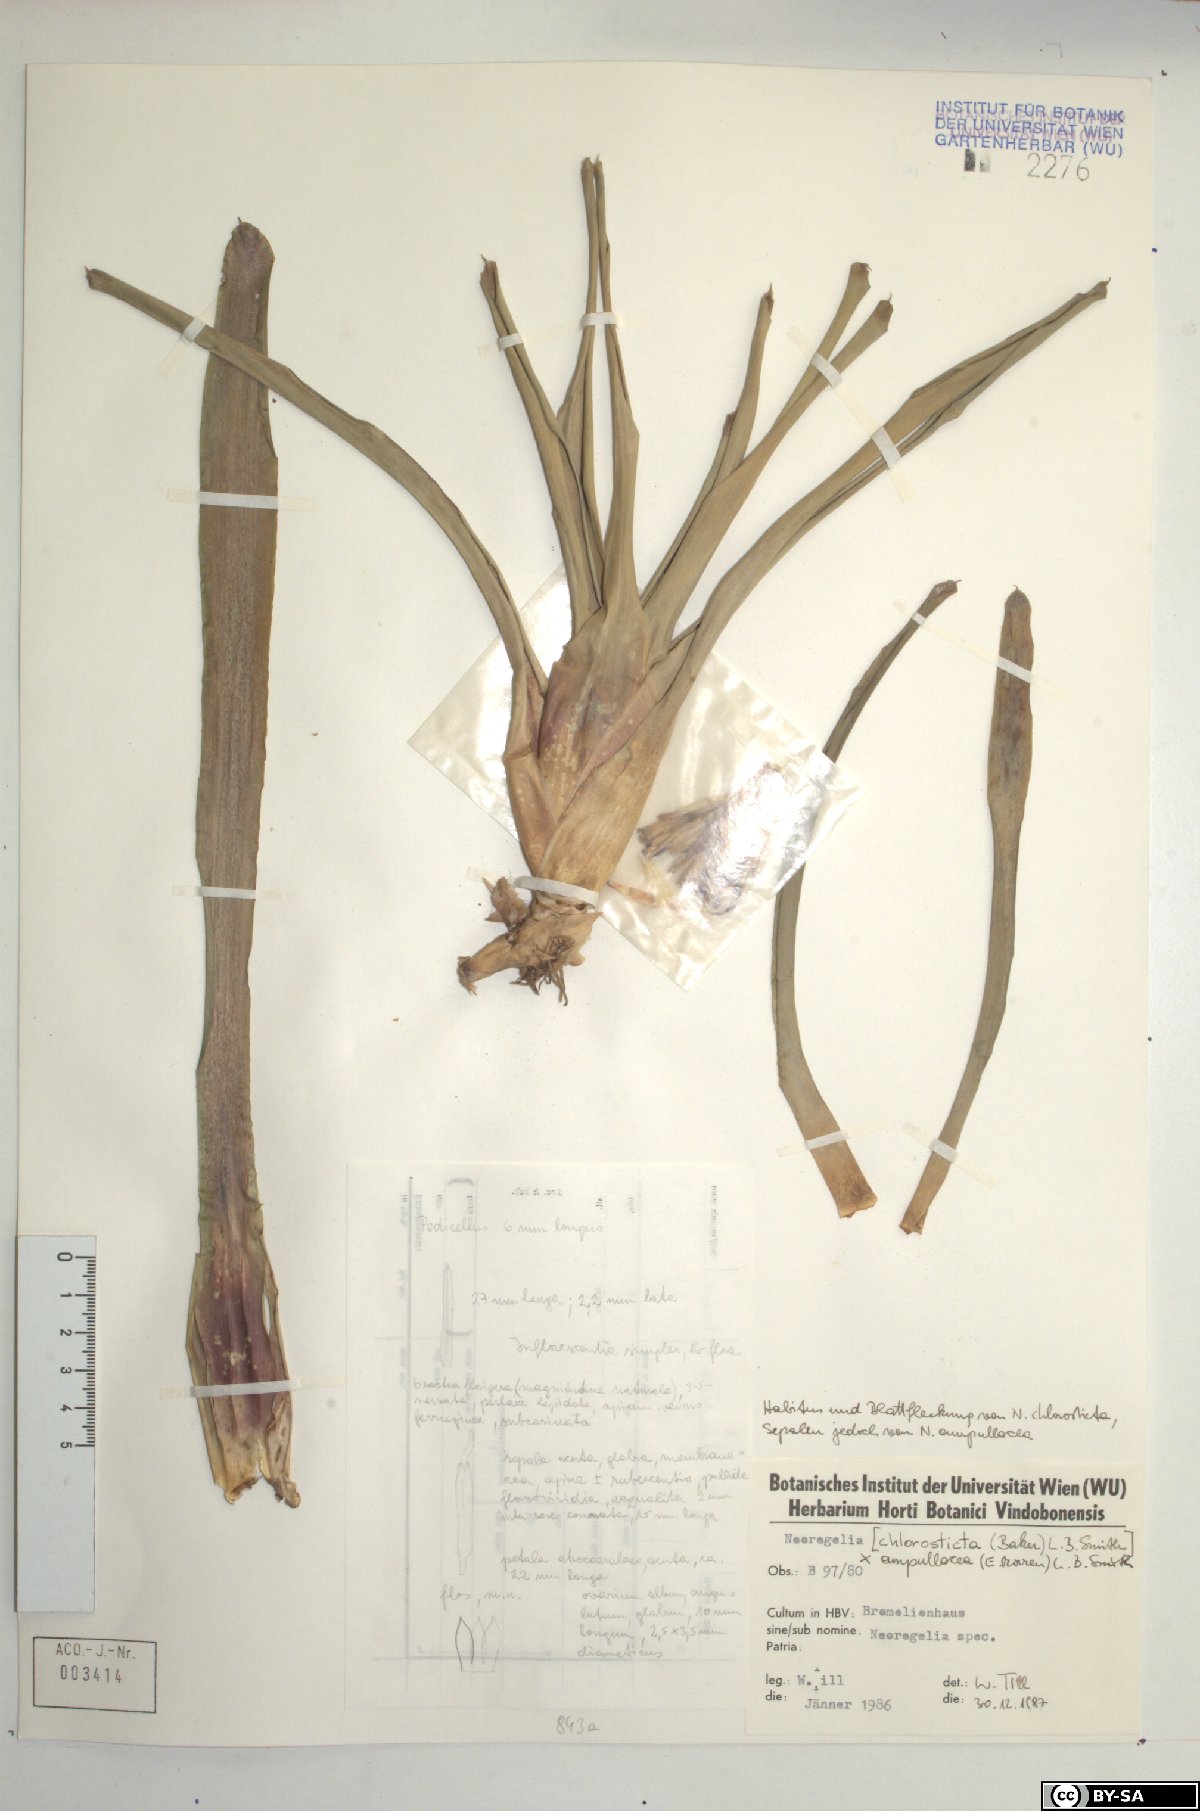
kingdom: Plantae
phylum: Tracheophyta
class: Liliopsida
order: Poales
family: Bromeliaceae
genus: Neoregelia
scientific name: Neoregelia ampullacea
